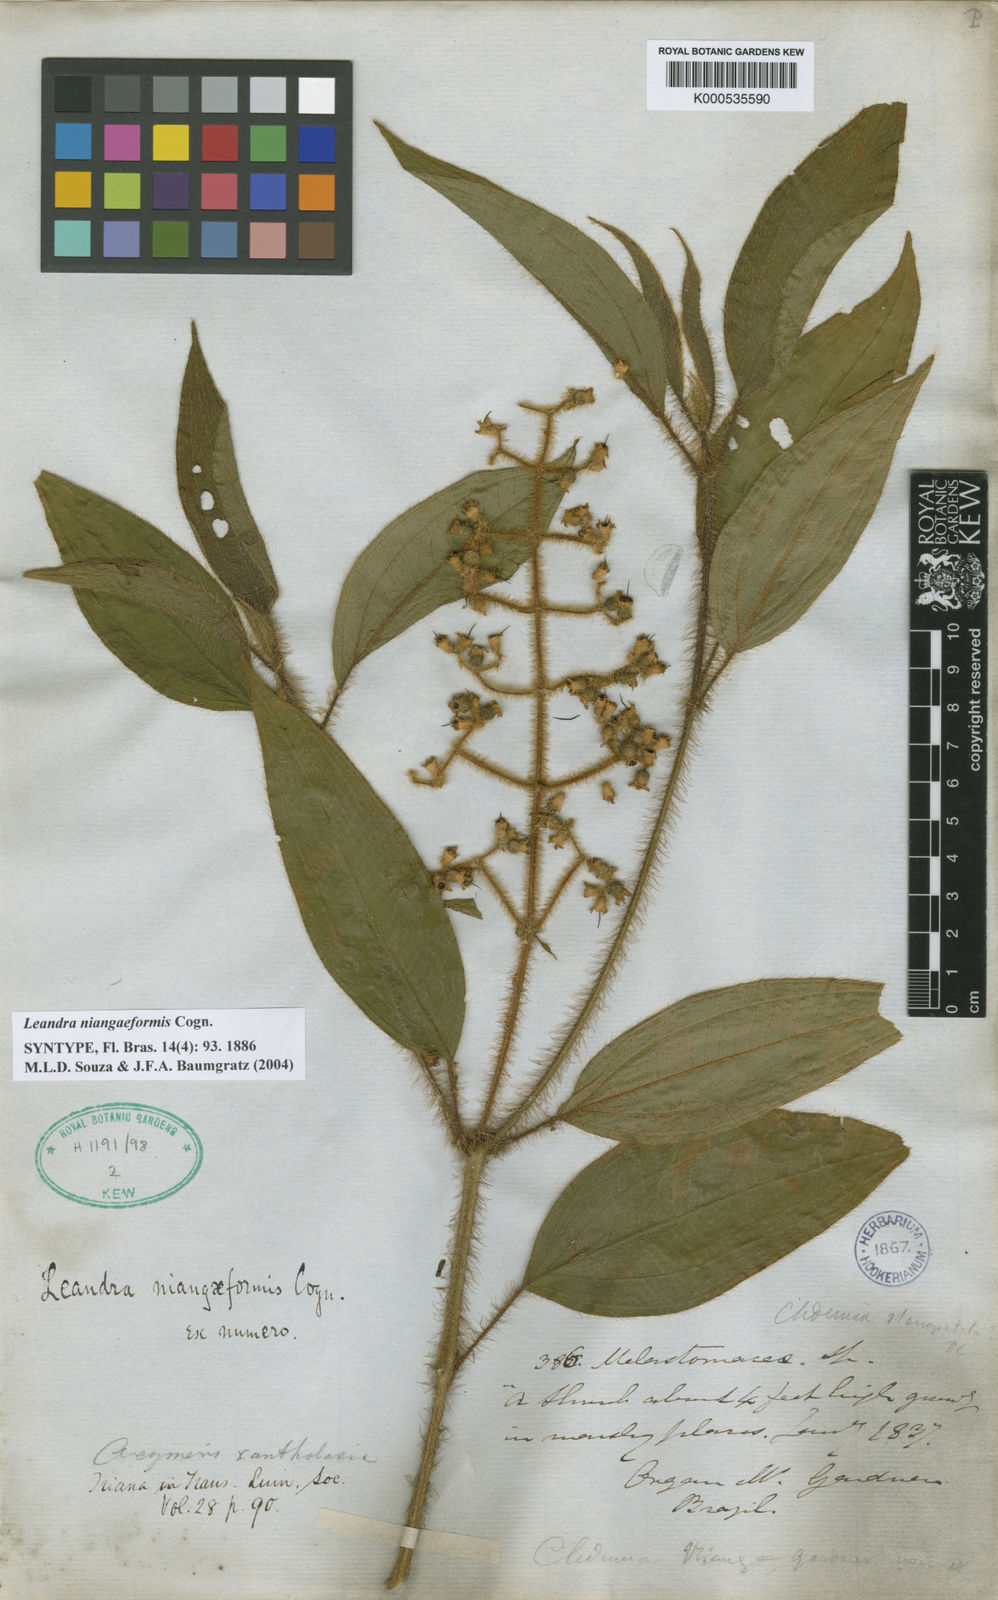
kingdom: Plantae
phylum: Tracheophyta
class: Magnoliopsida
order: Myrtales
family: Melastomataceae
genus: Miconia
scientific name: Miconia niangaeformis
